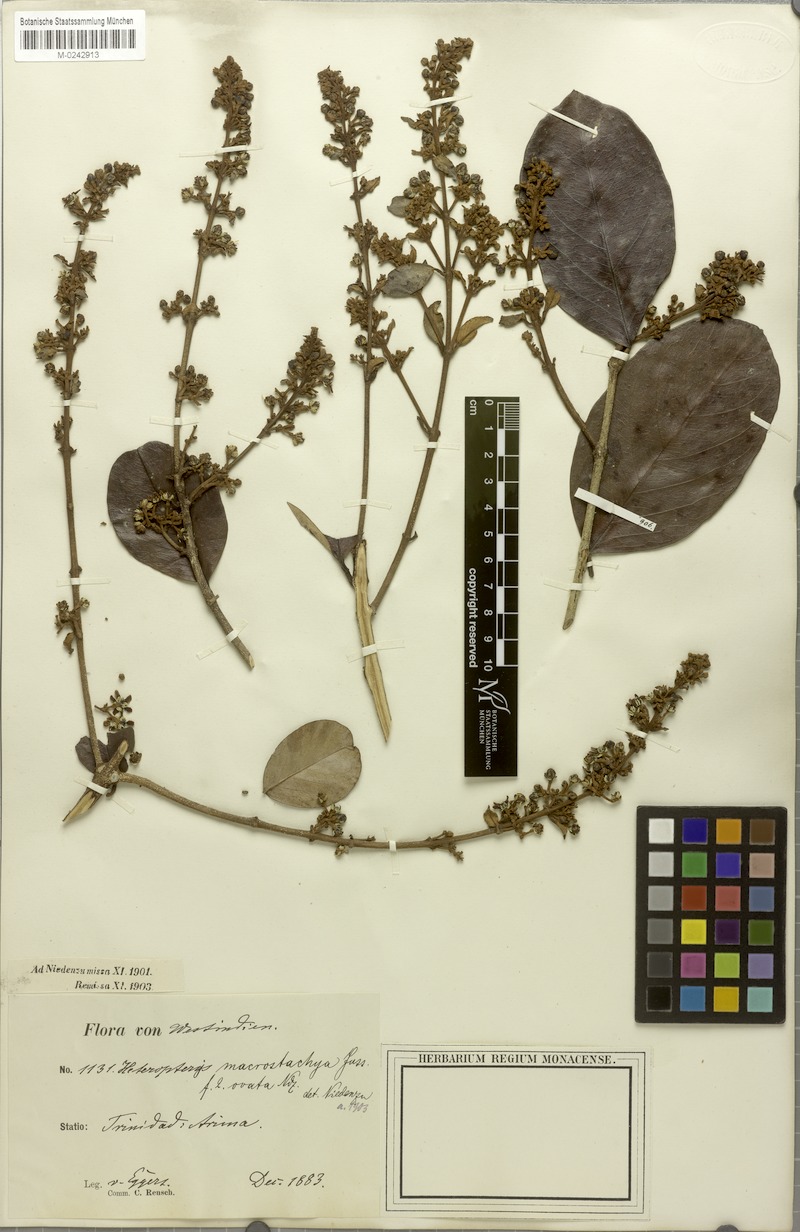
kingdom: Plantae
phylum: Tracheophyta
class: Magnoliopsida
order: Malpighiales
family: Malpighiaceae
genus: Heteropterys
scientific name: Heteropterys macrostachya
